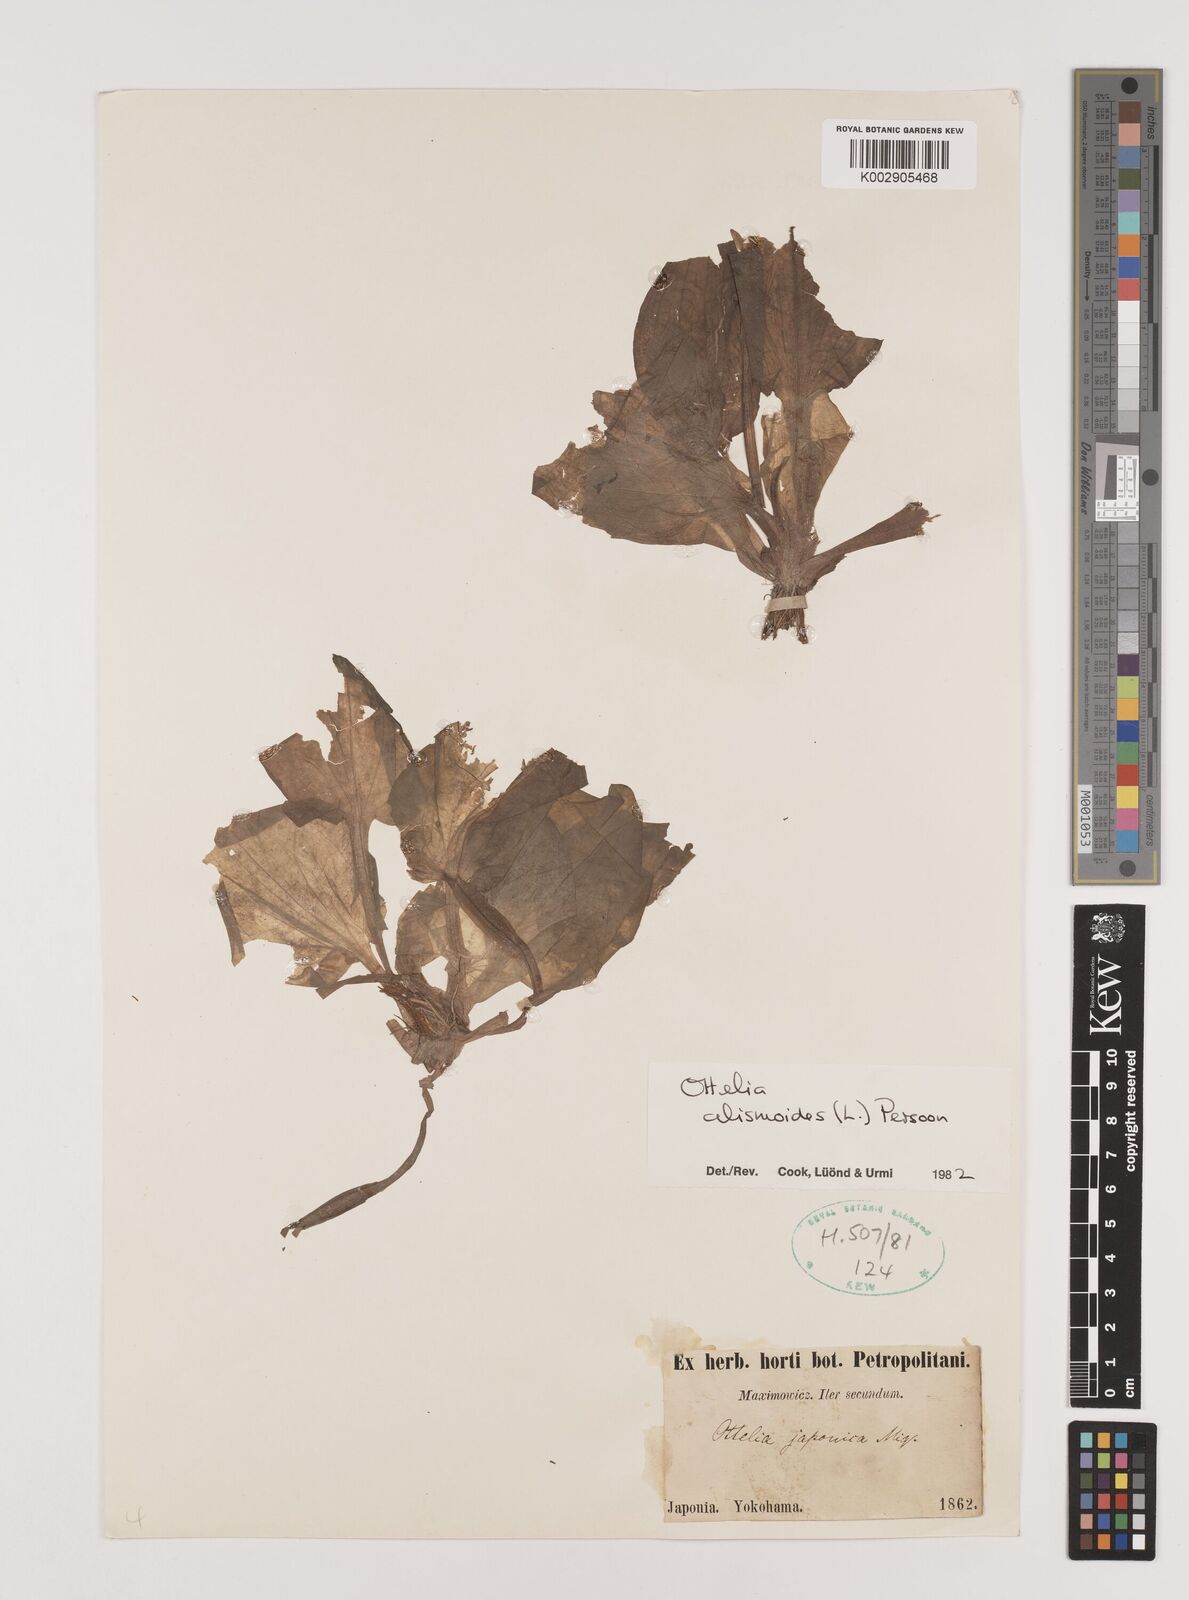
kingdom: Plantae
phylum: Tracheophyta
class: Liliopsida
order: Alismatales
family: Hydrocharitaceae
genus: Ottelia
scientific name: Ottelia alismoides
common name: Duck-lettuce
